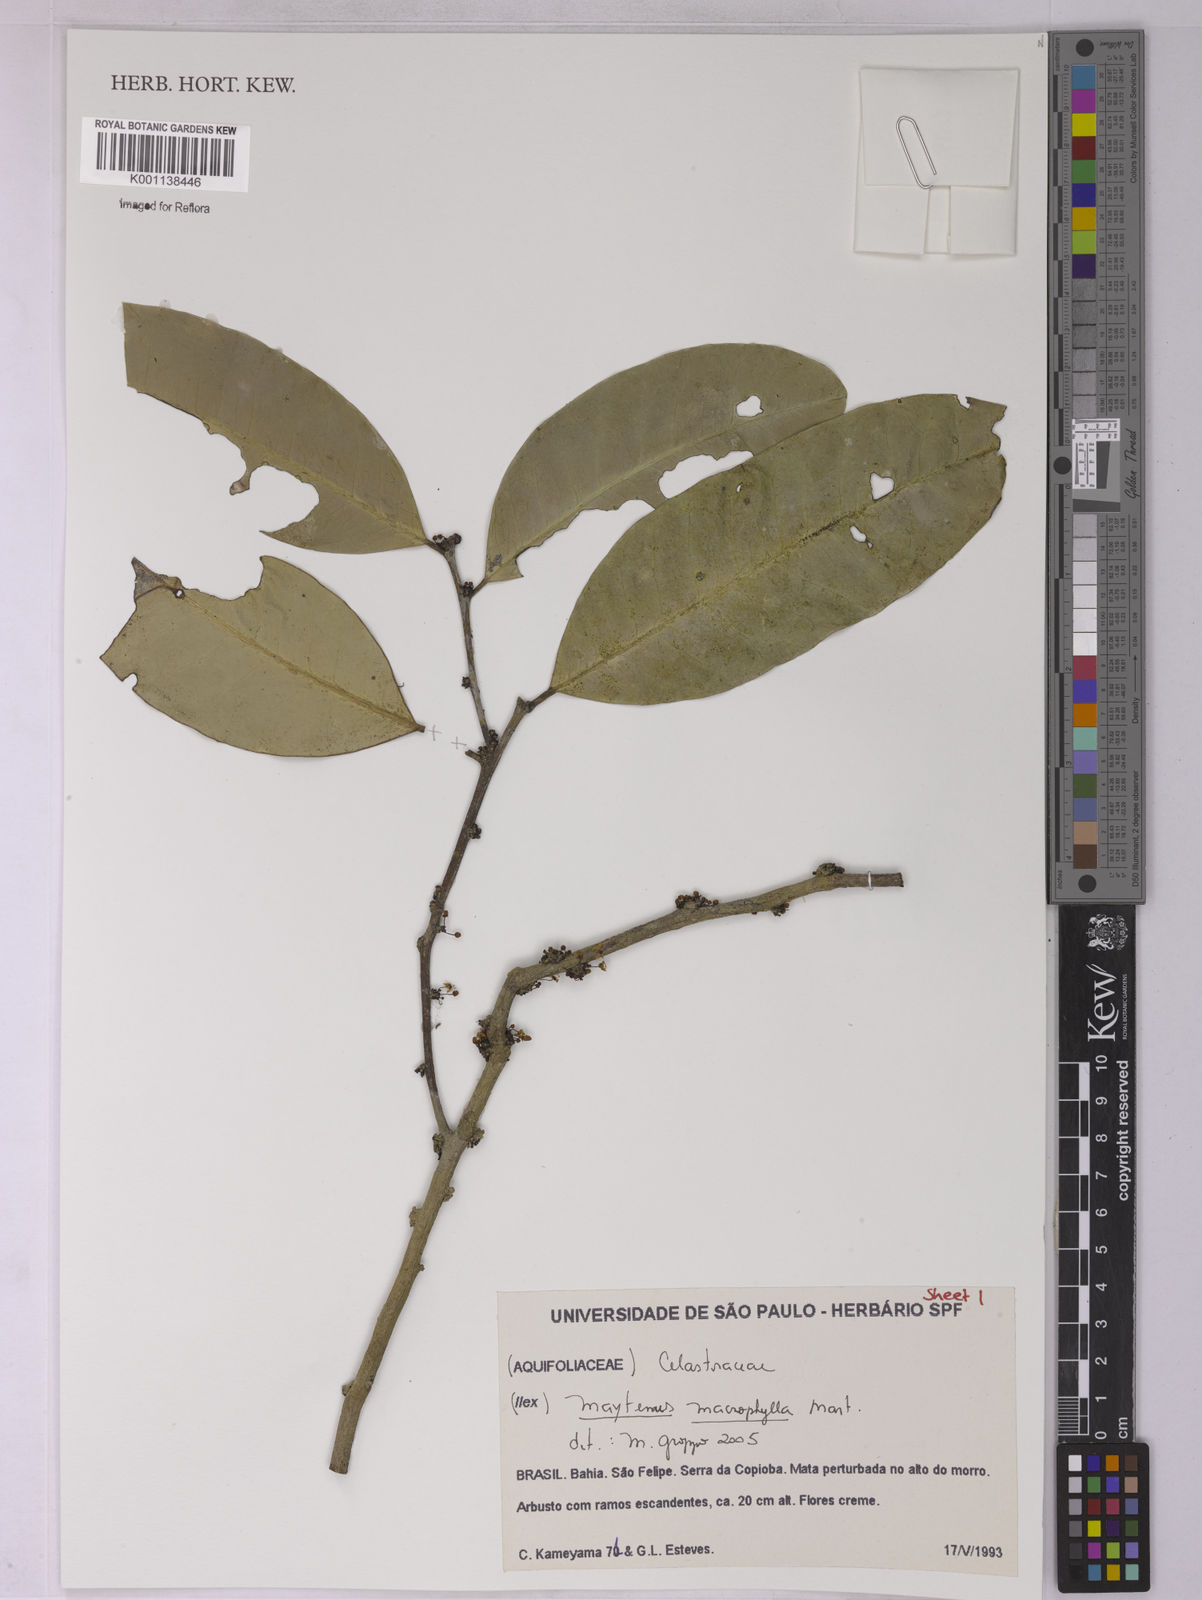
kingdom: Plantae
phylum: Tracheophyta
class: Magnoliopsida
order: Celastrales
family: Celastraceae
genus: Monteverdia
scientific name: Monteverdia macrophylla
